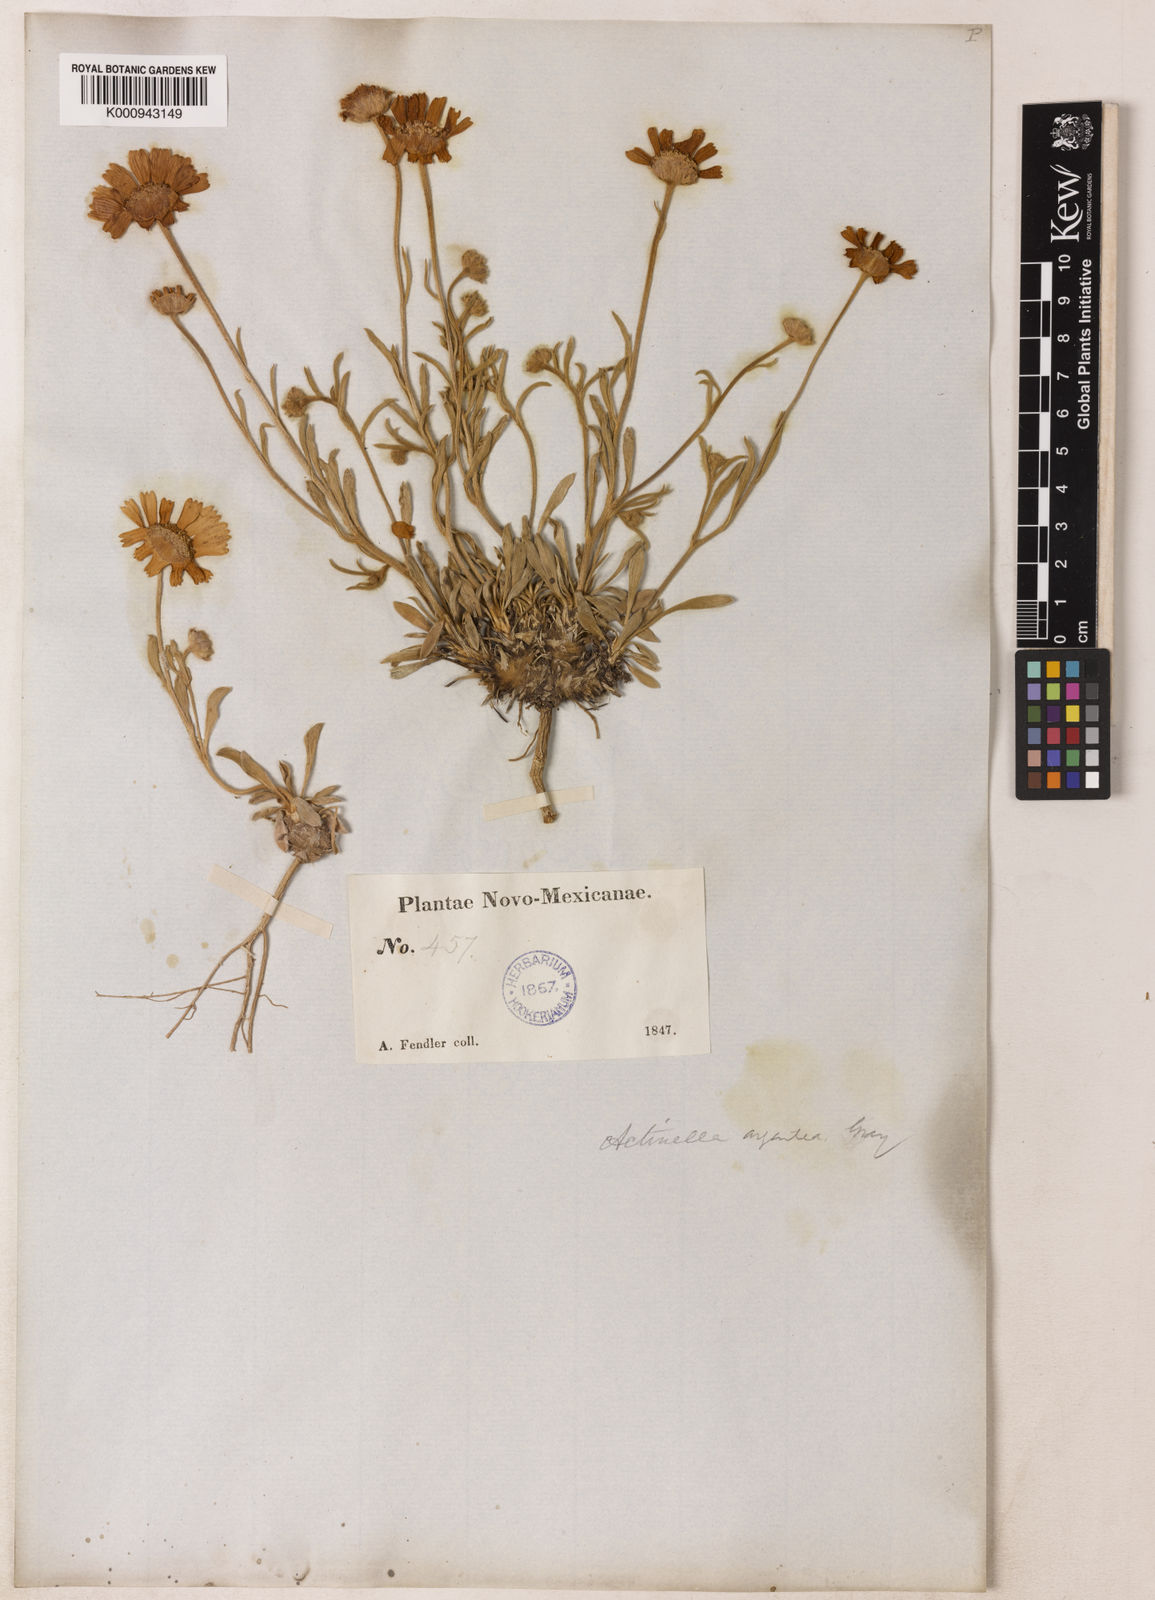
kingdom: Plantae
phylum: Tracheophyta
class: Magnoliopsida
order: Asterales
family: Asteraceae
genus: Tetraneuris
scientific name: Tetraneuris argentea
